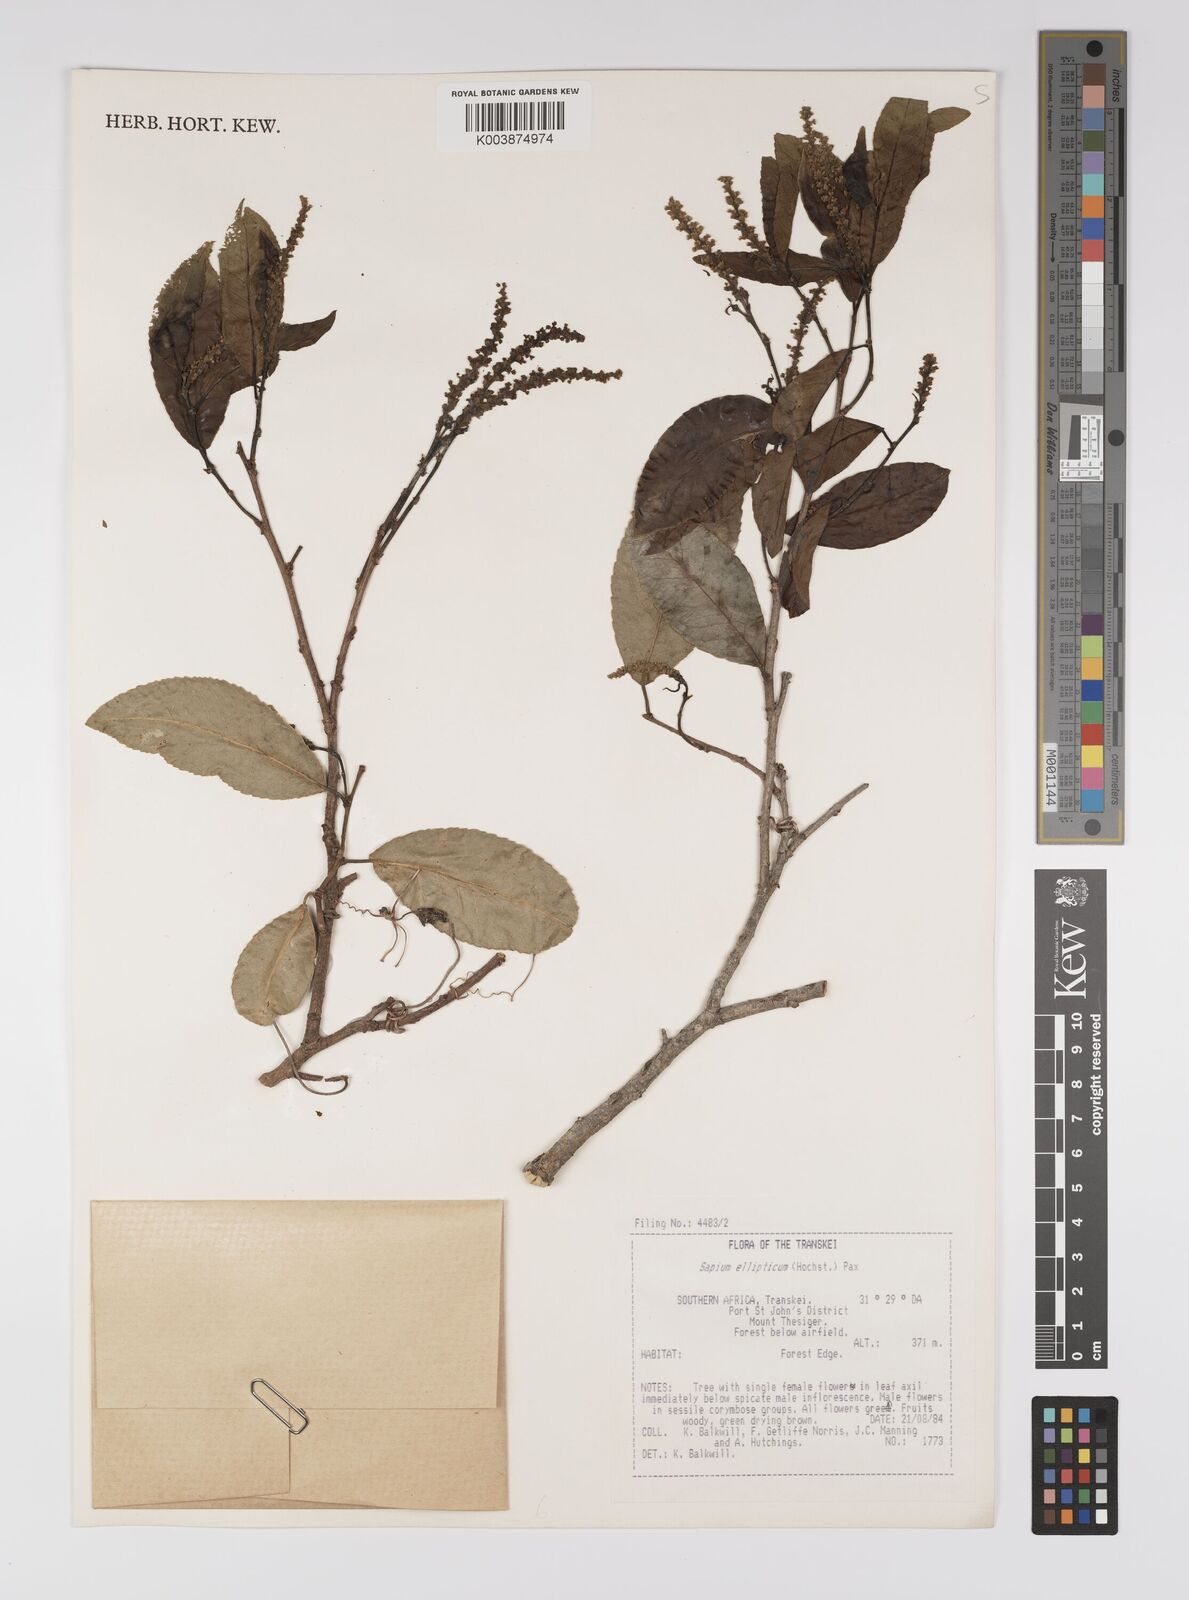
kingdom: Plantae
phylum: Tracheophyta
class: Magnoliopsida
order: Malpighiales
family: Euphorbiaceae
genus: Shirakiopsis
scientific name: Shirakiopsis elliptica
